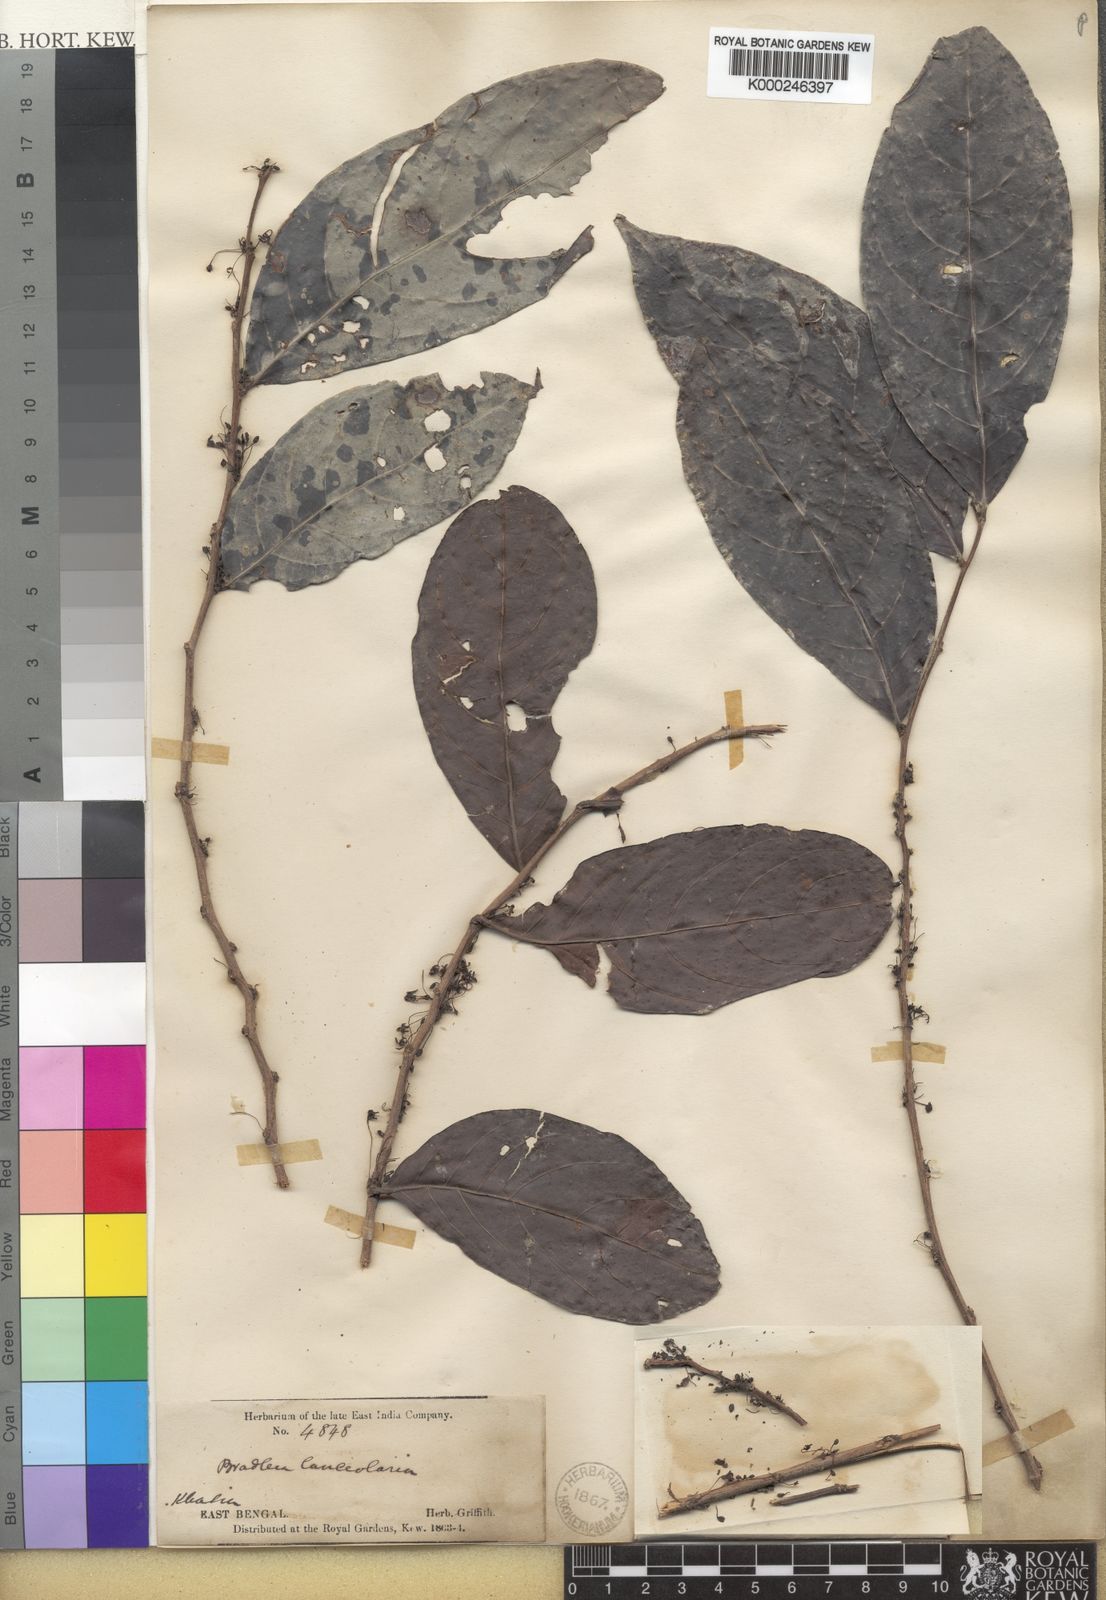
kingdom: Plantae
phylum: Tracheophyta
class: Magnoliopsida
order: Malpighiales
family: Phyllanthaceae
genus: Glochidion
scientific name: Glochidion ellipticum
